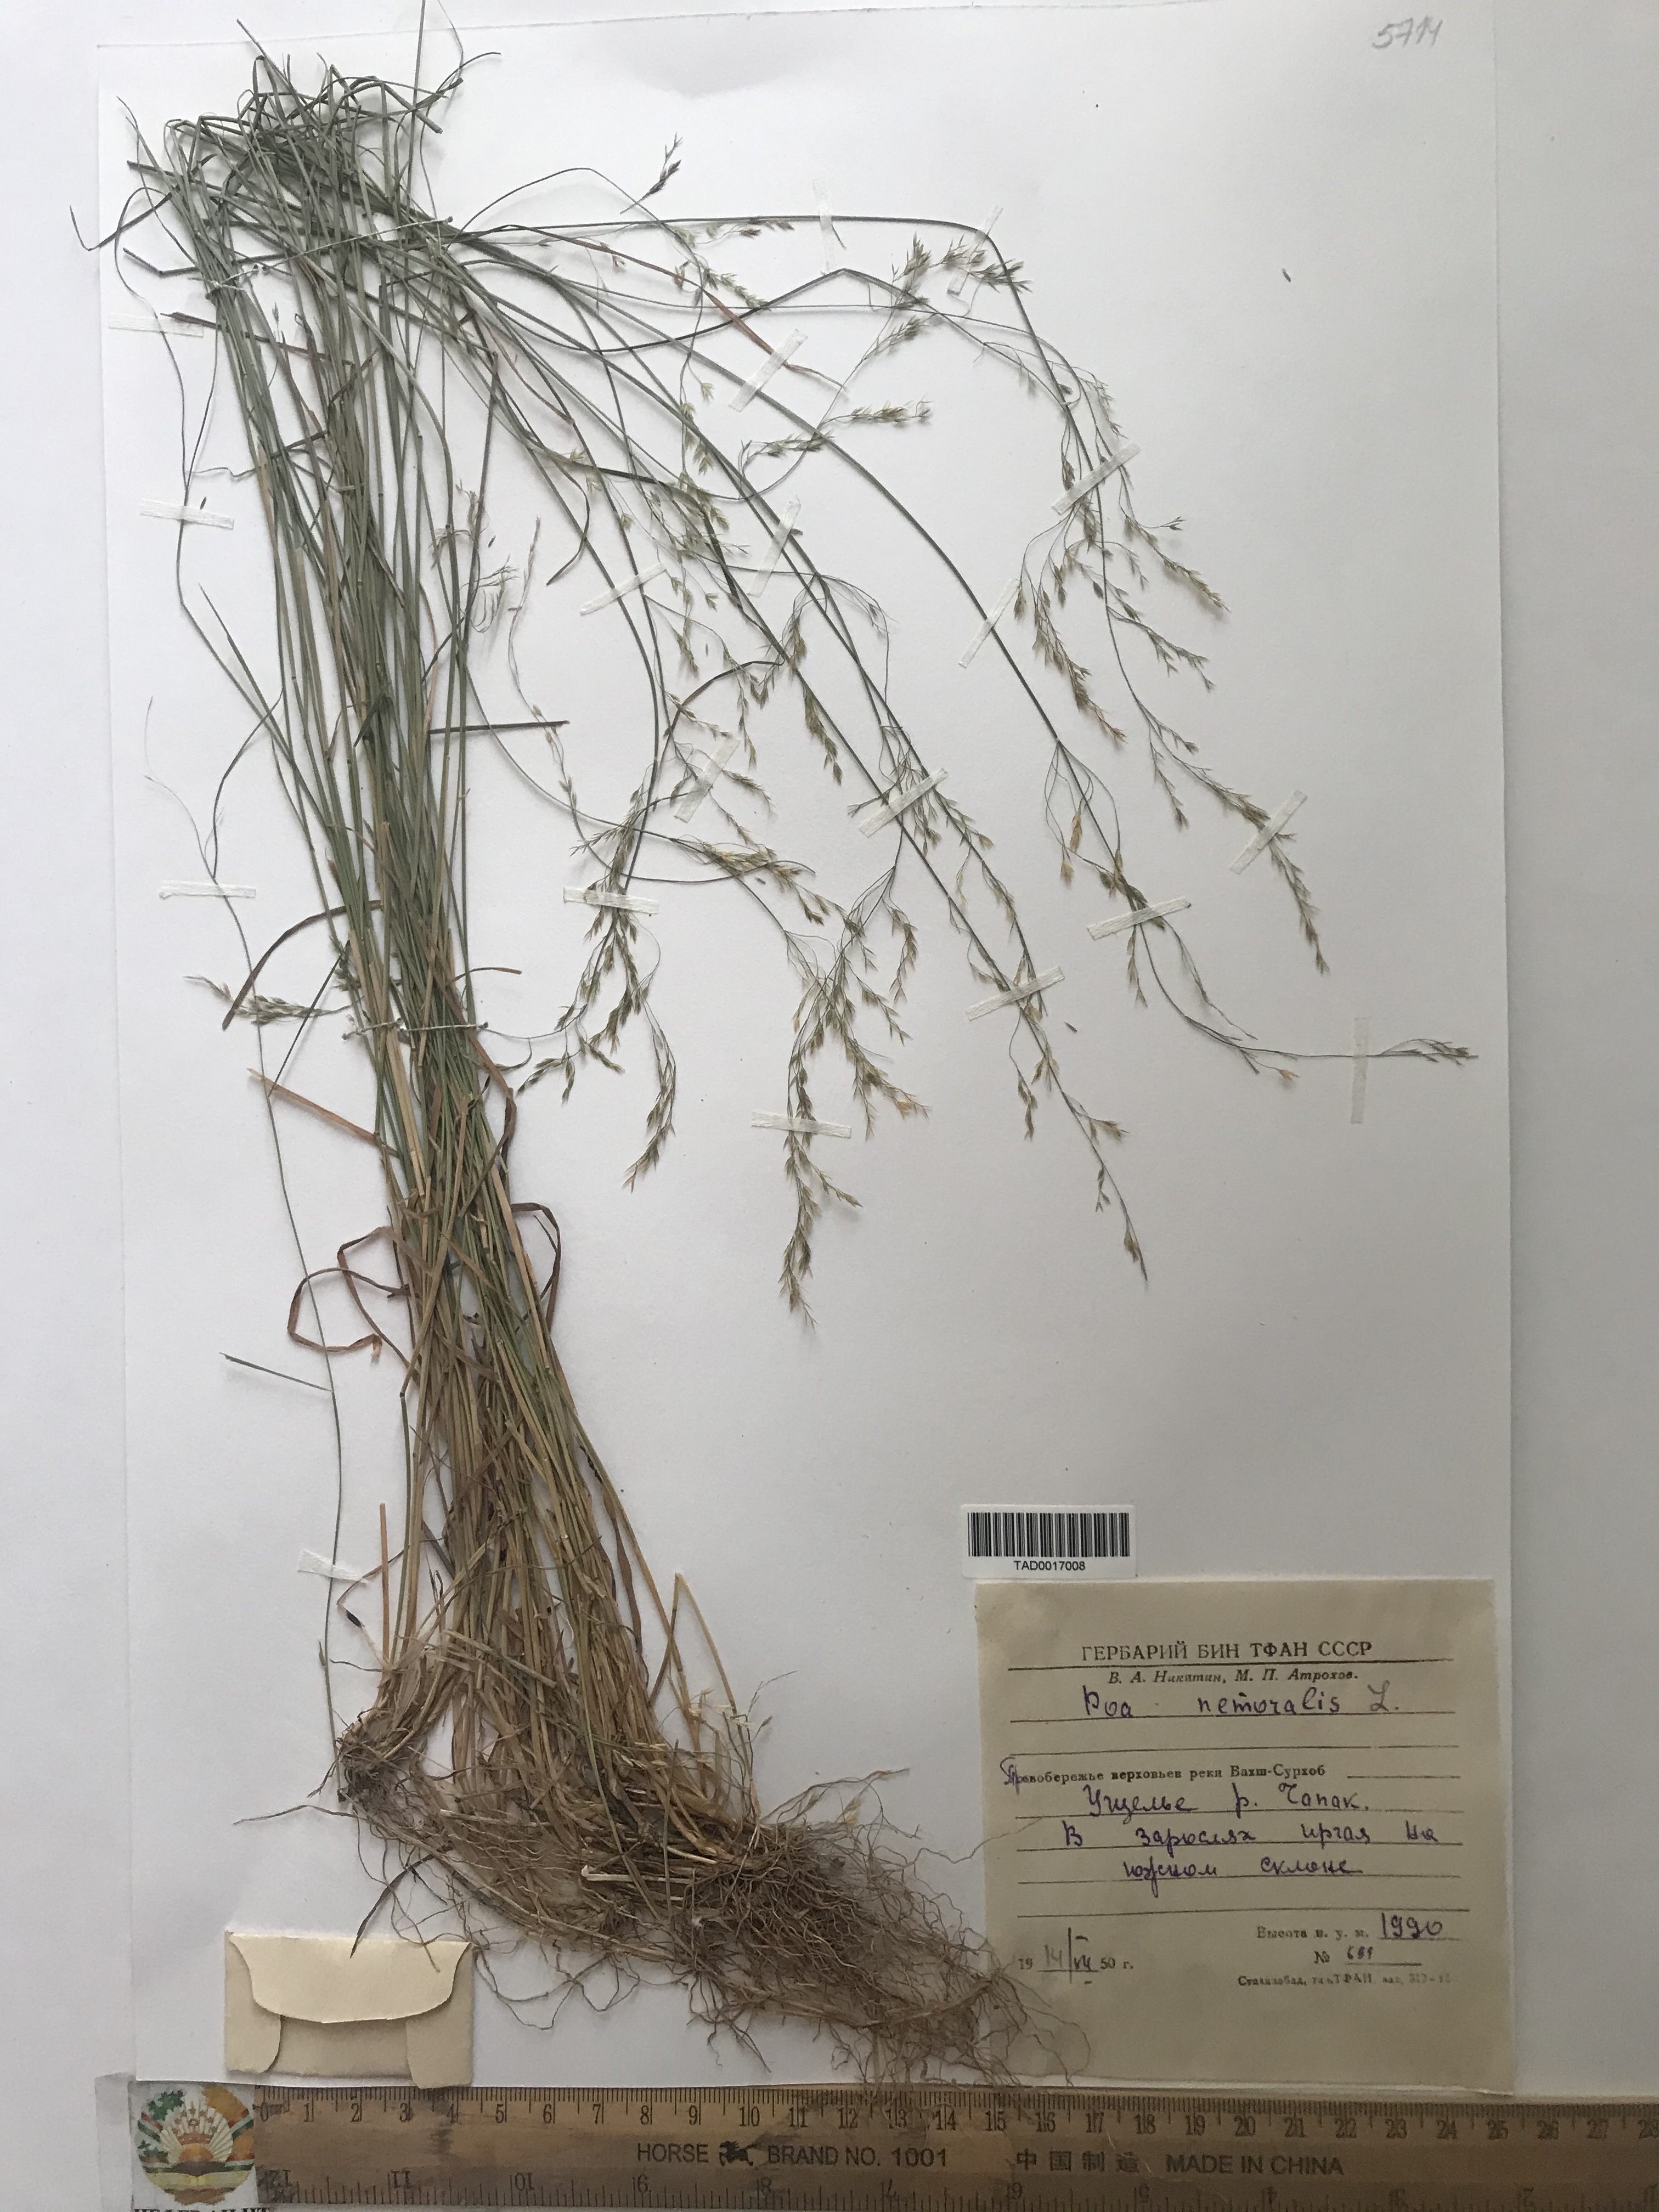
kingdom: Plantae
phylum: Tracheophyta
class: Liliopsida
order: Poales
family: Poaceae
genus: Poa
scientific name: Poa nemoralis
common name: Wood bluegrass
